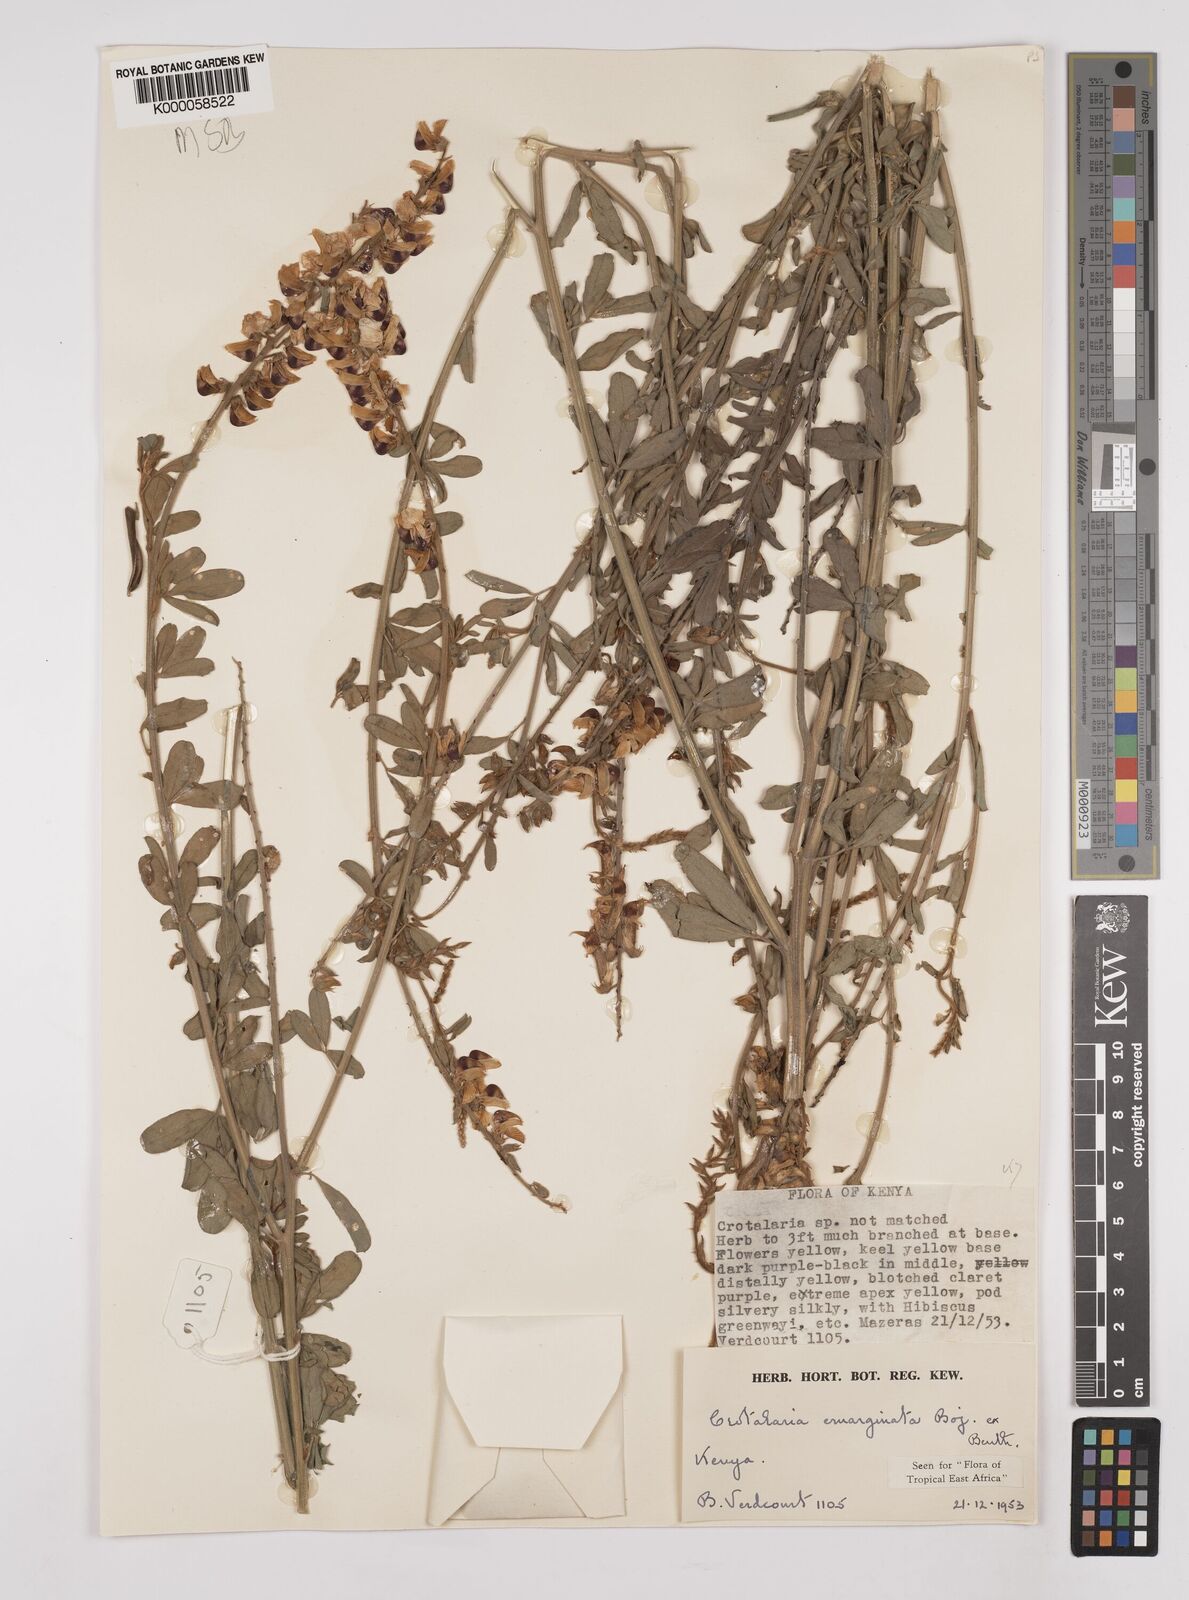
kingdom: Plantae
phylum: Tracheophyta
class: Magnoliopsida
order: Fabales
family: Fabaceae
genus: Crotalaria
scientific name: Crotalaria emarginata
